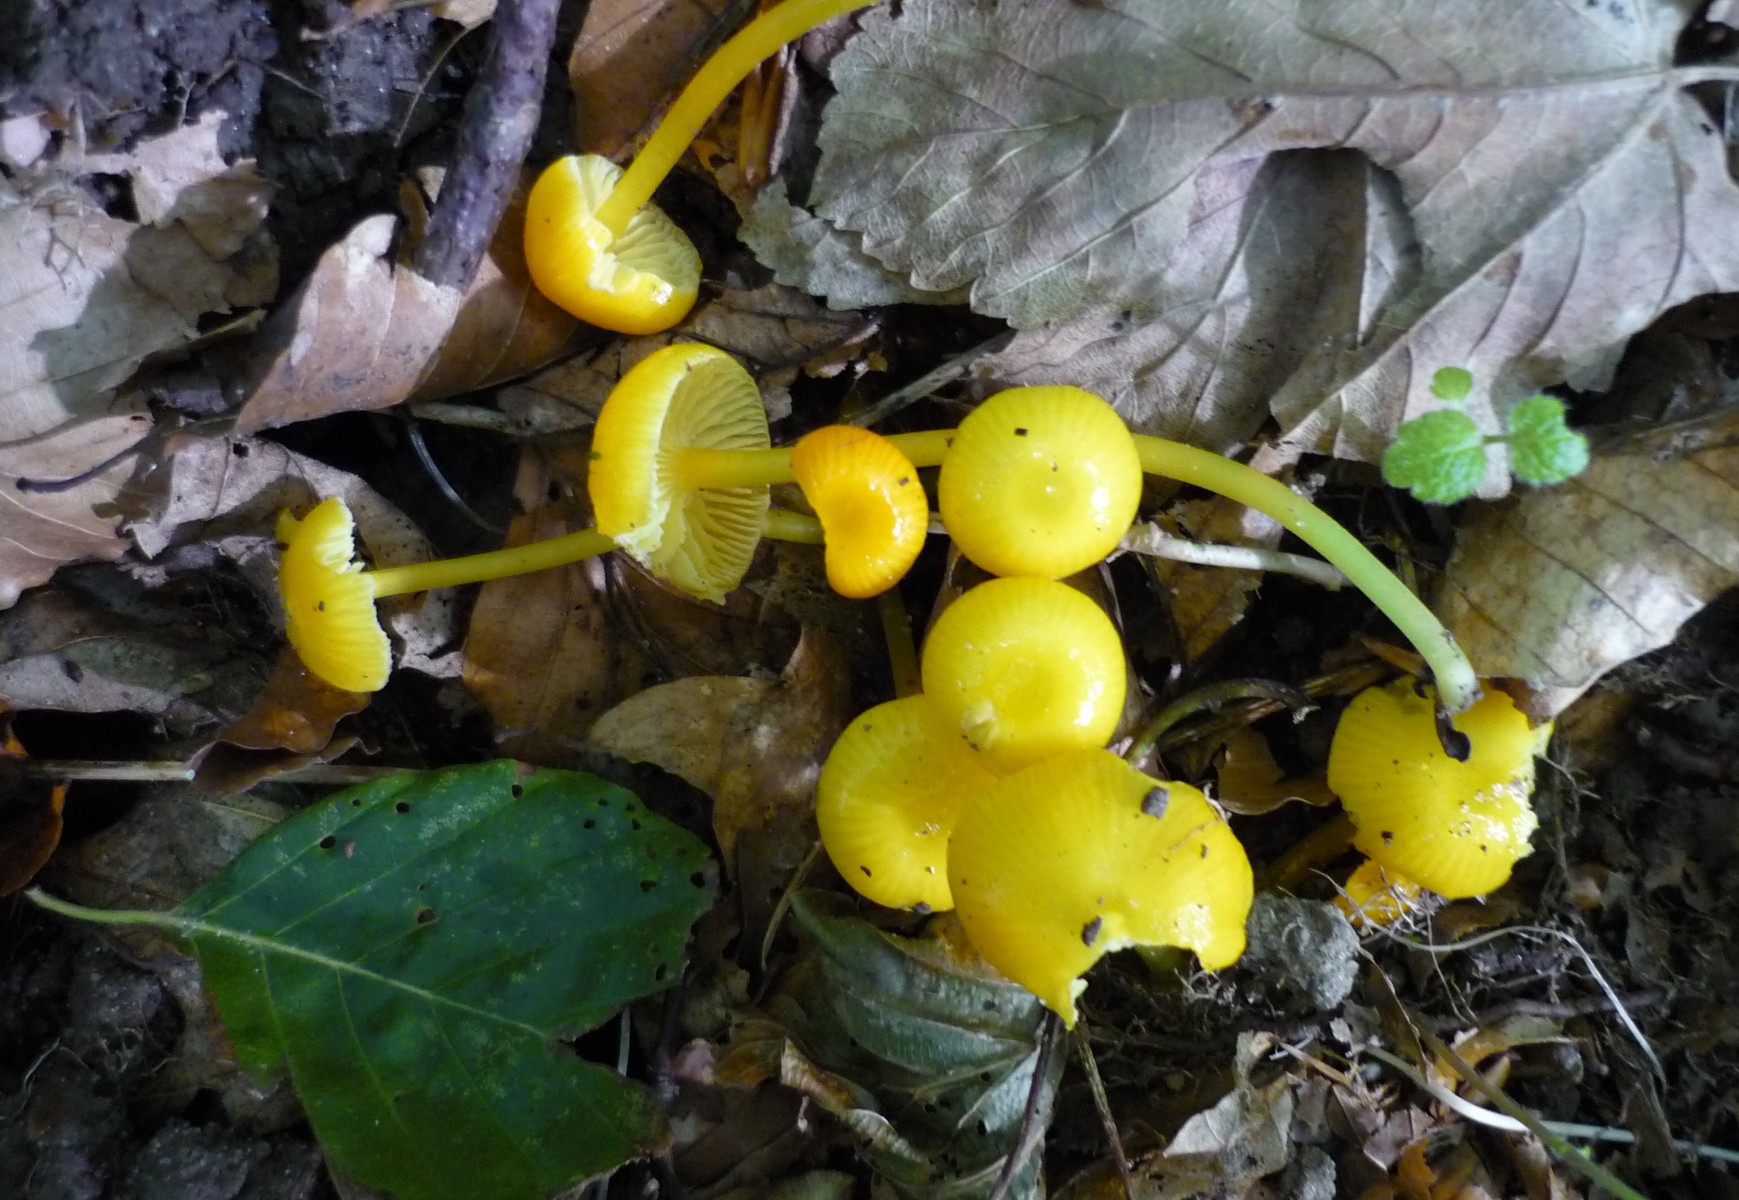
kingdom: Fungi
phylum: Basidiomycota
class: Agaricomycetes
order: Agaricales
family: Hygrophoraceae
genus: Hygrocybe
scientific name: Hygrocybe ceracea
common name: voksgul vokshat
